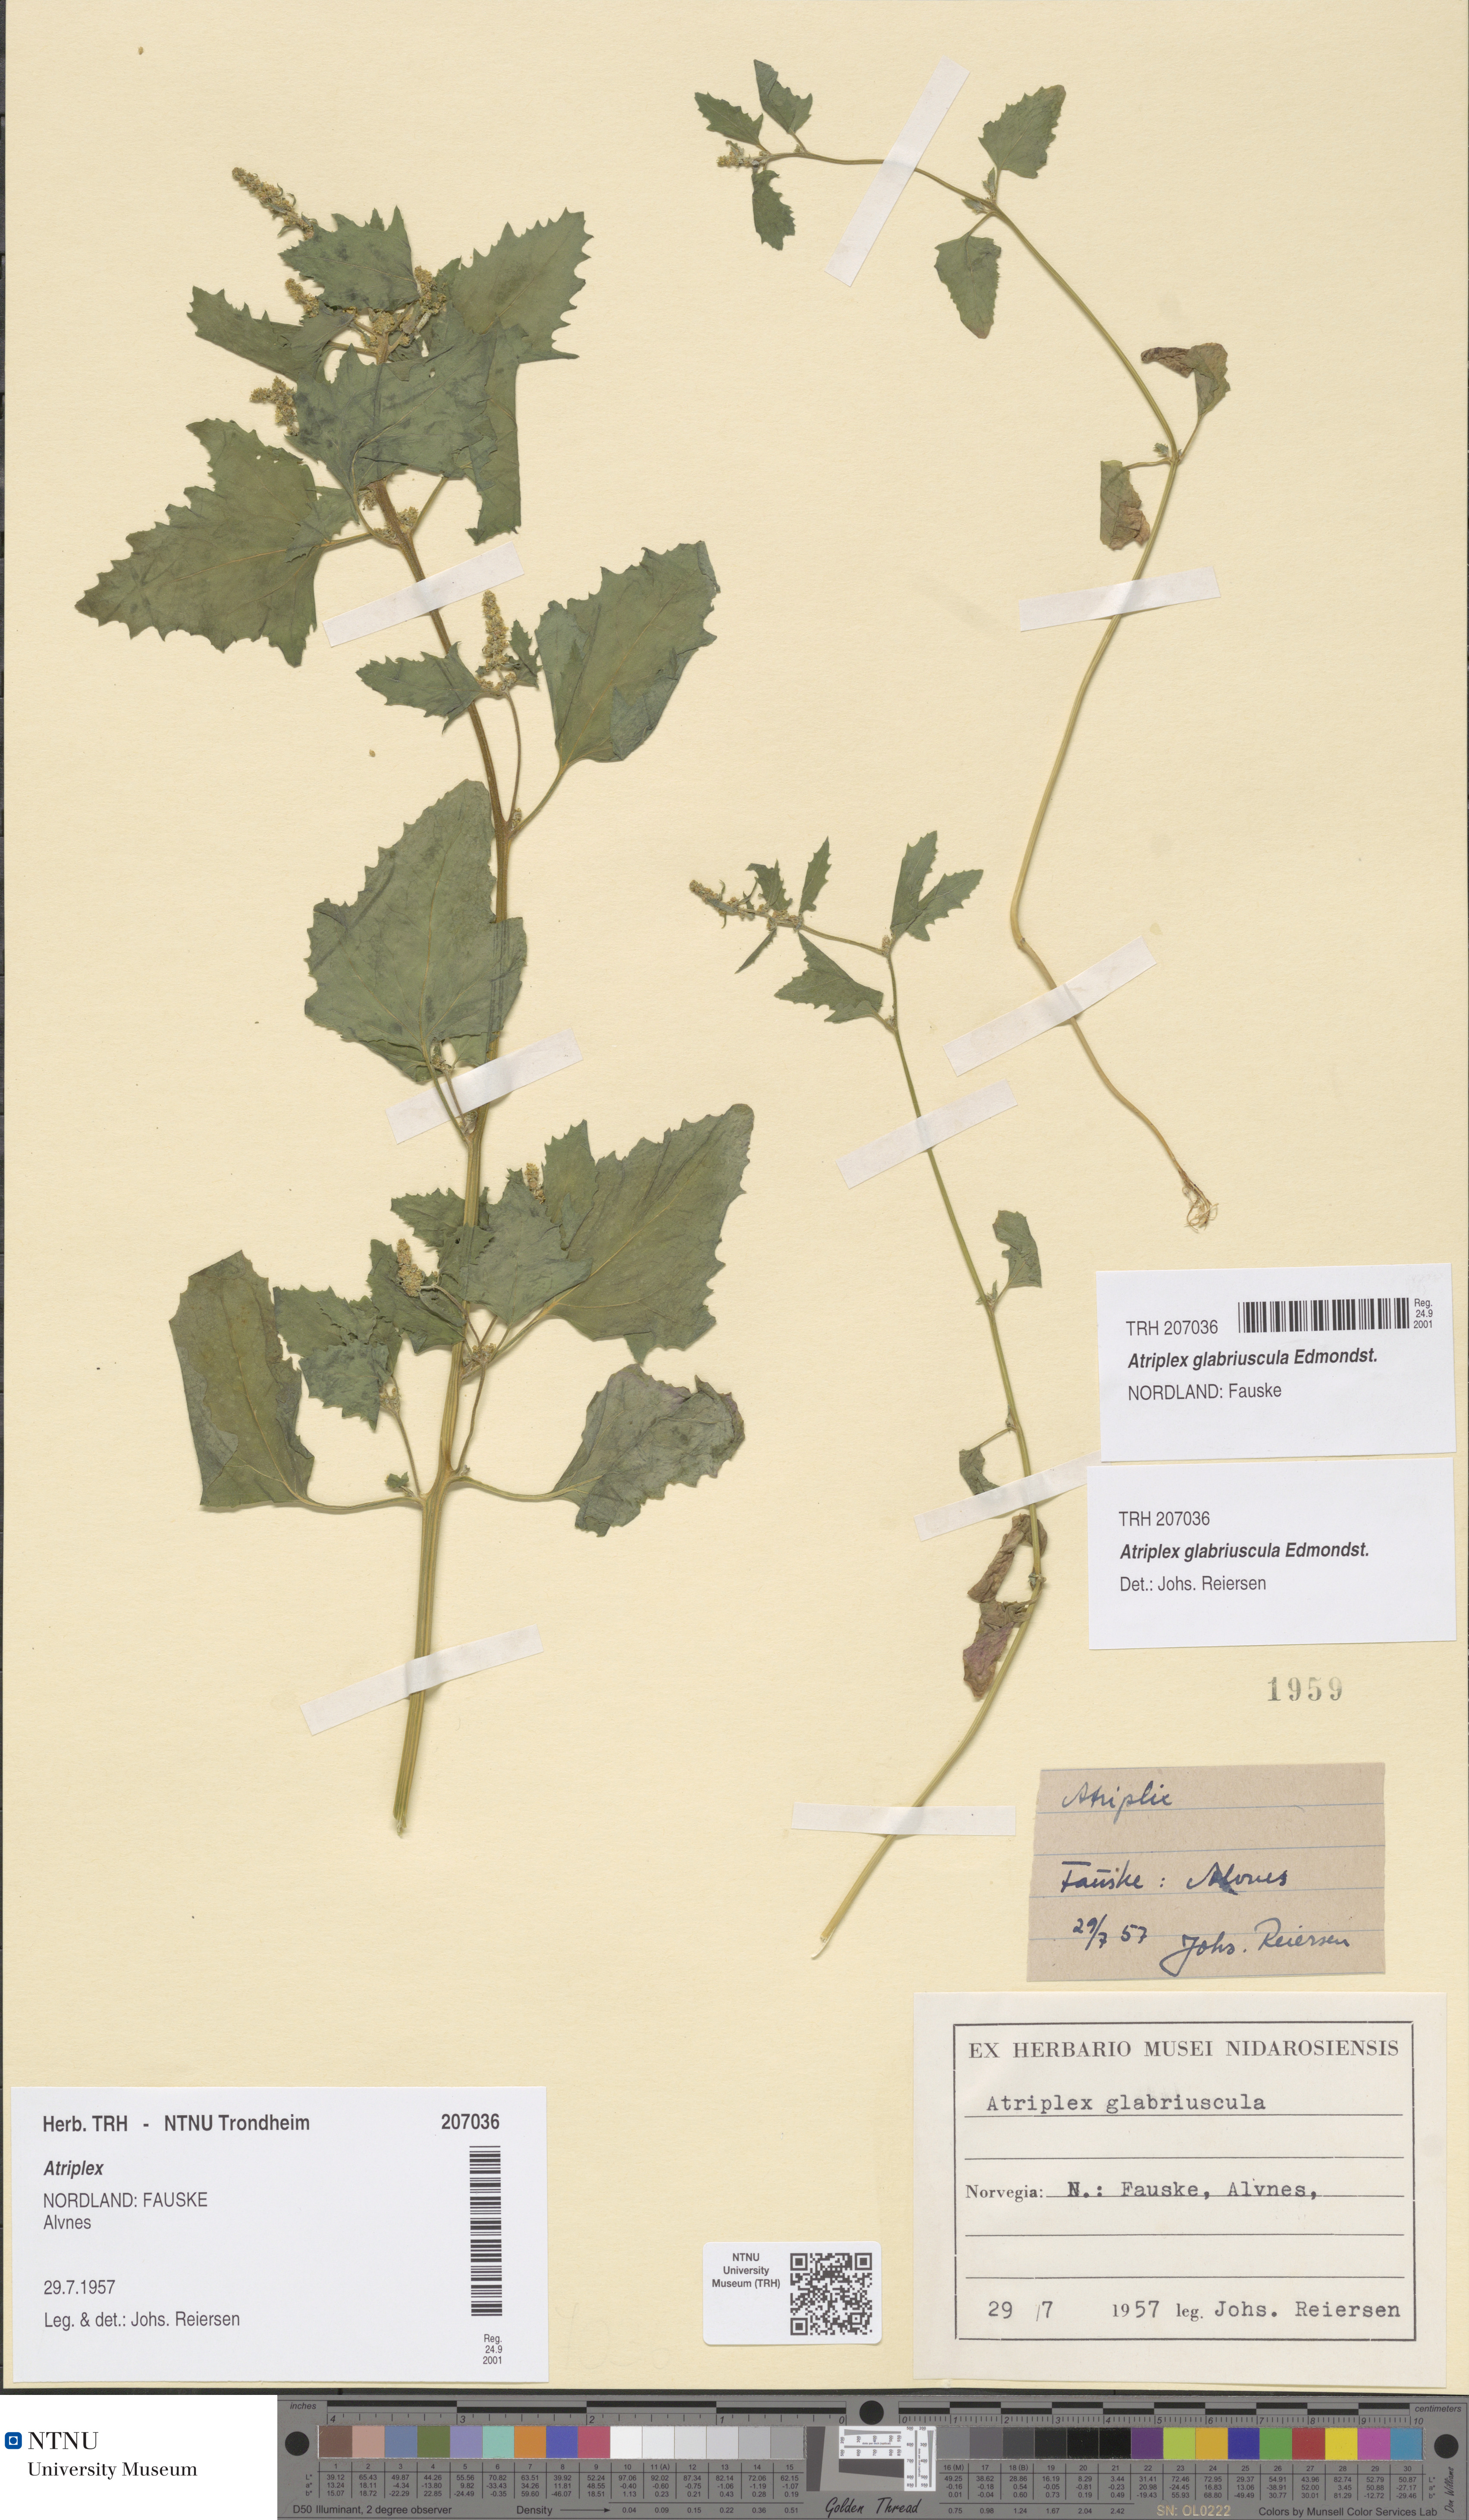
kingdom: Plantae
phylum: Tracheophyta
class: Magnoliopsida
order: Caryophyllales
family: Amaranthaceae
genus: Atriplex
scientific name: Atriplex glabriuscula
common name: Babington's orache
